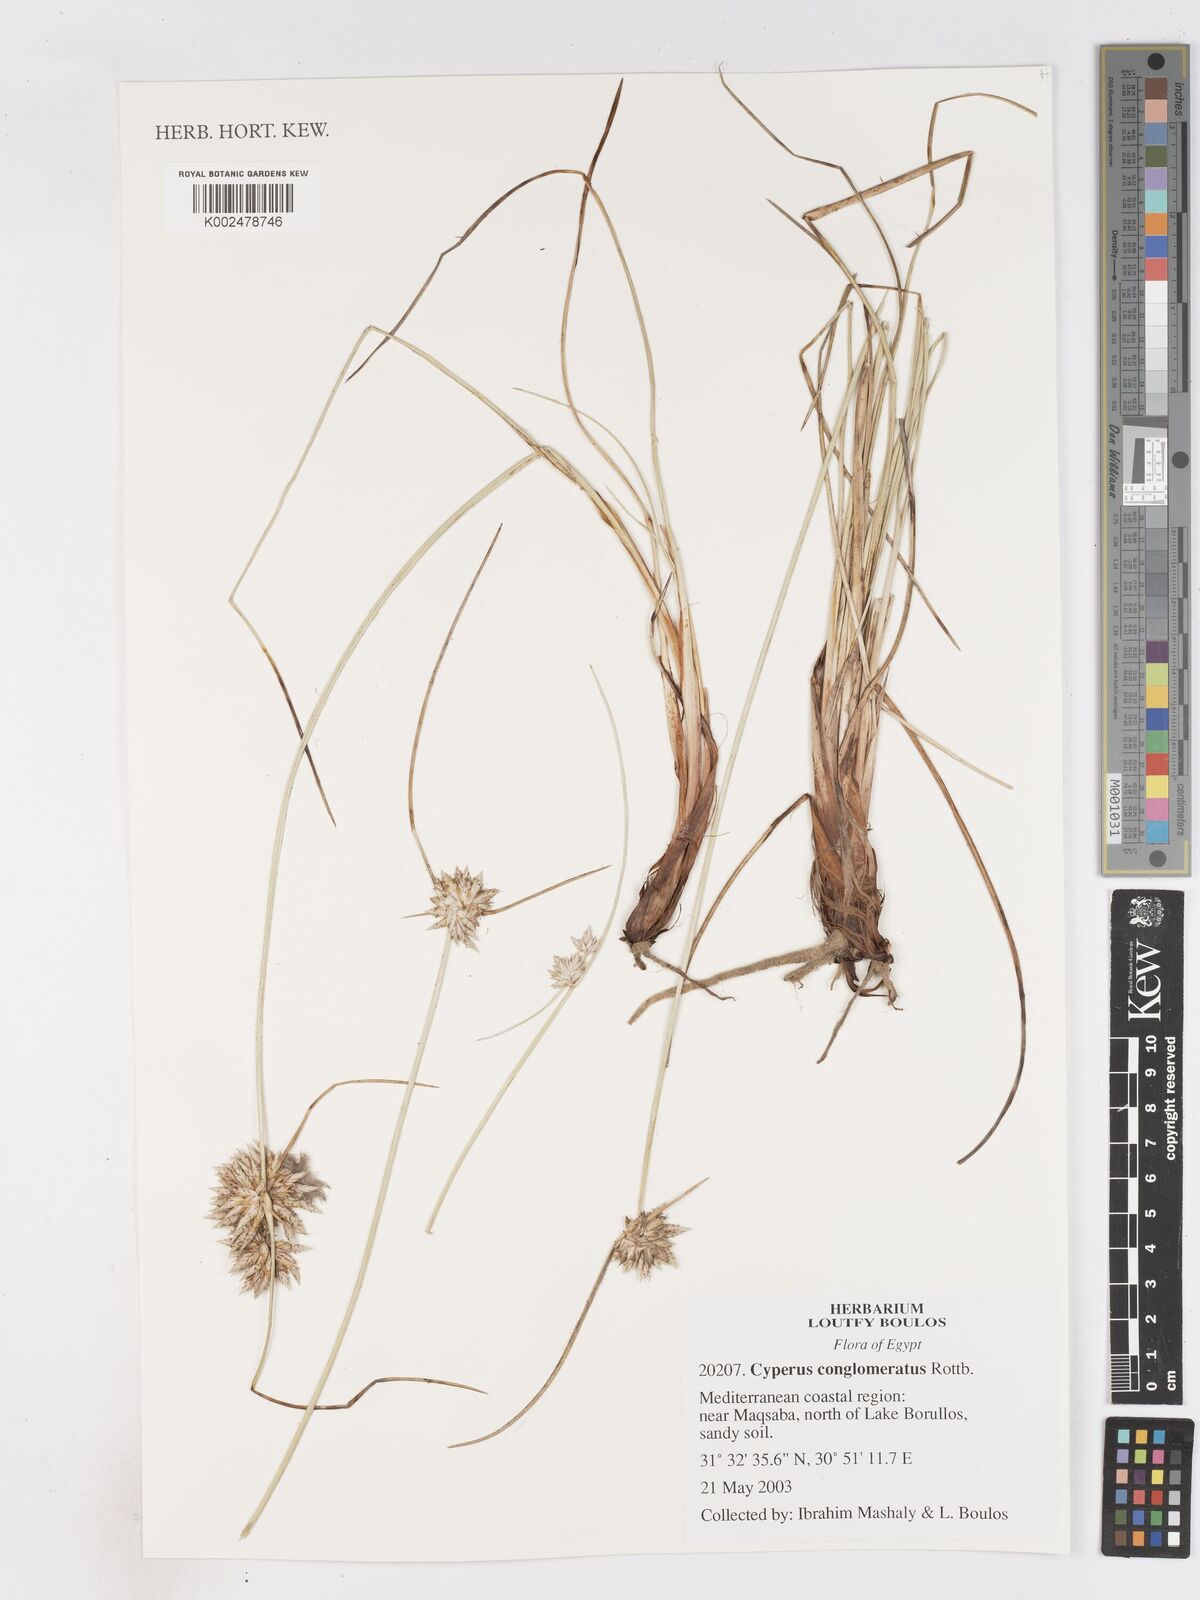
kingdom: Plantae
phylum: Tracheophyta
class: Liliopsida
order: Poales
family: Cyperaceae
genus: Cyperus
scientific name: Cyperus conglomeratus
